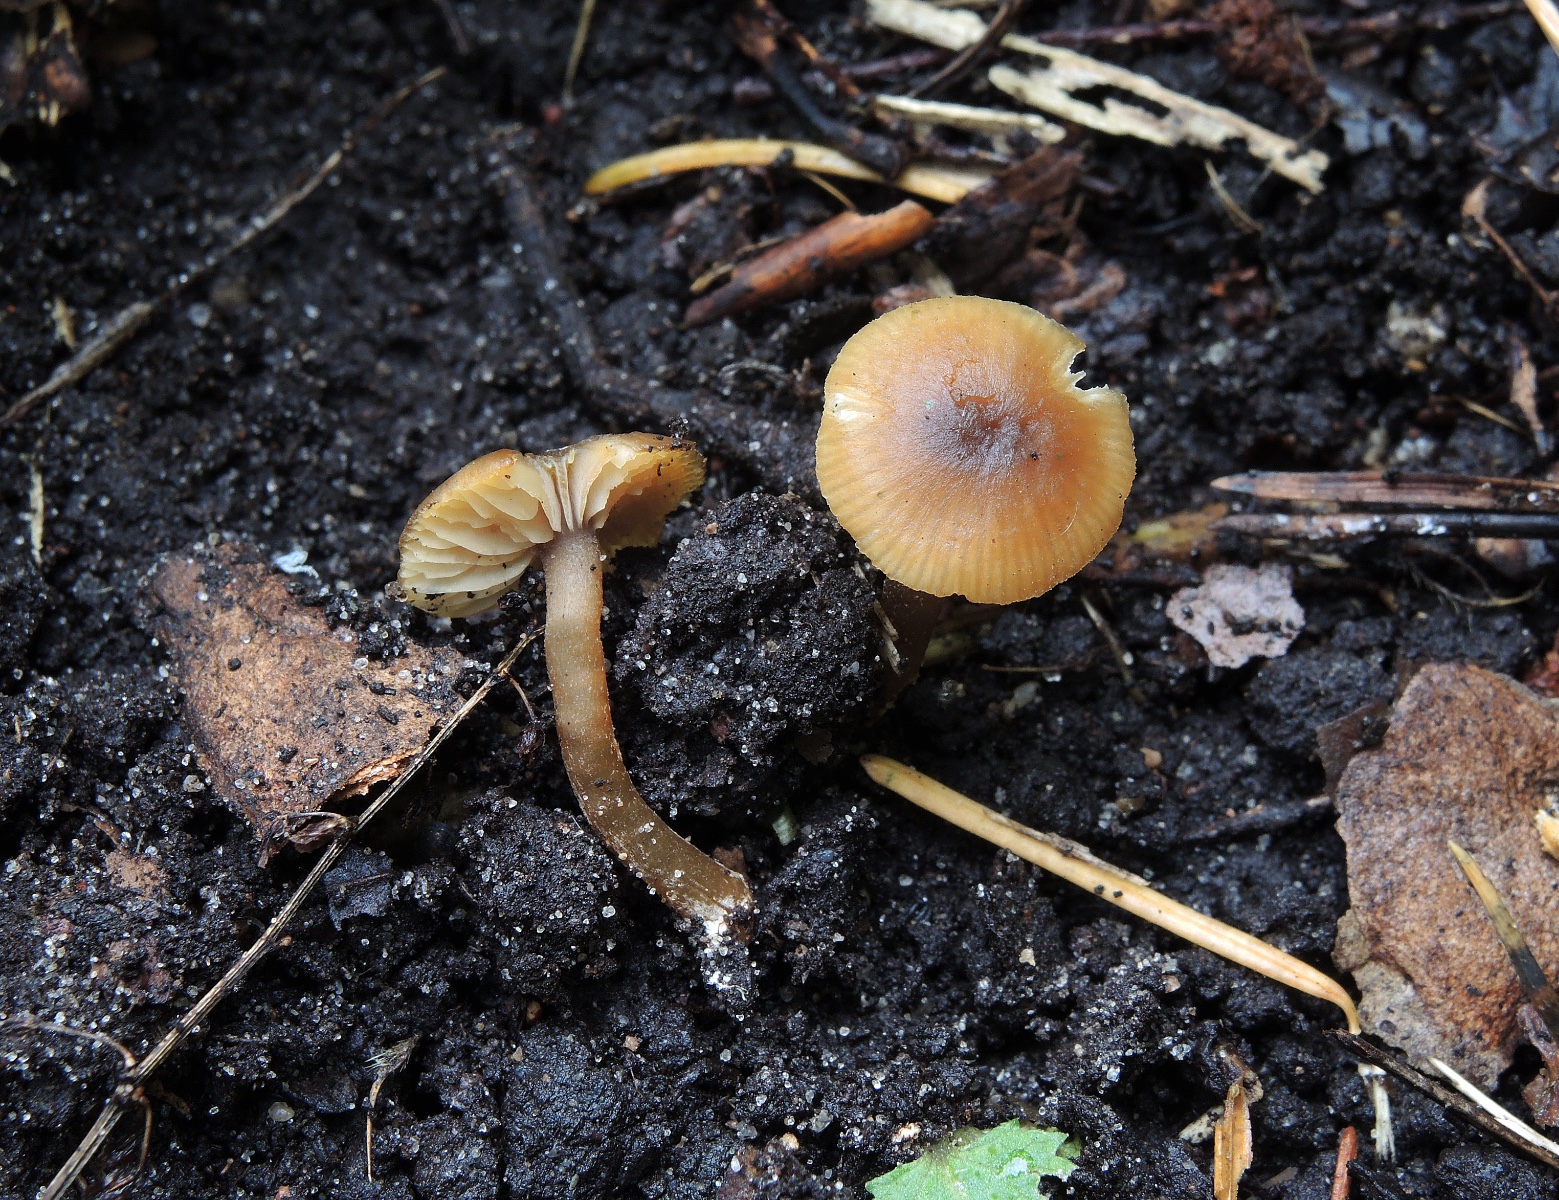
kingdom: Fungi
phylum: Basidiomycota
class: Agaricomycetes
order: Agaricales
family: Entolomataceae
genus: Rhodophana
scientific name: Rhodophana melleopallens
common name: gul troldhat
